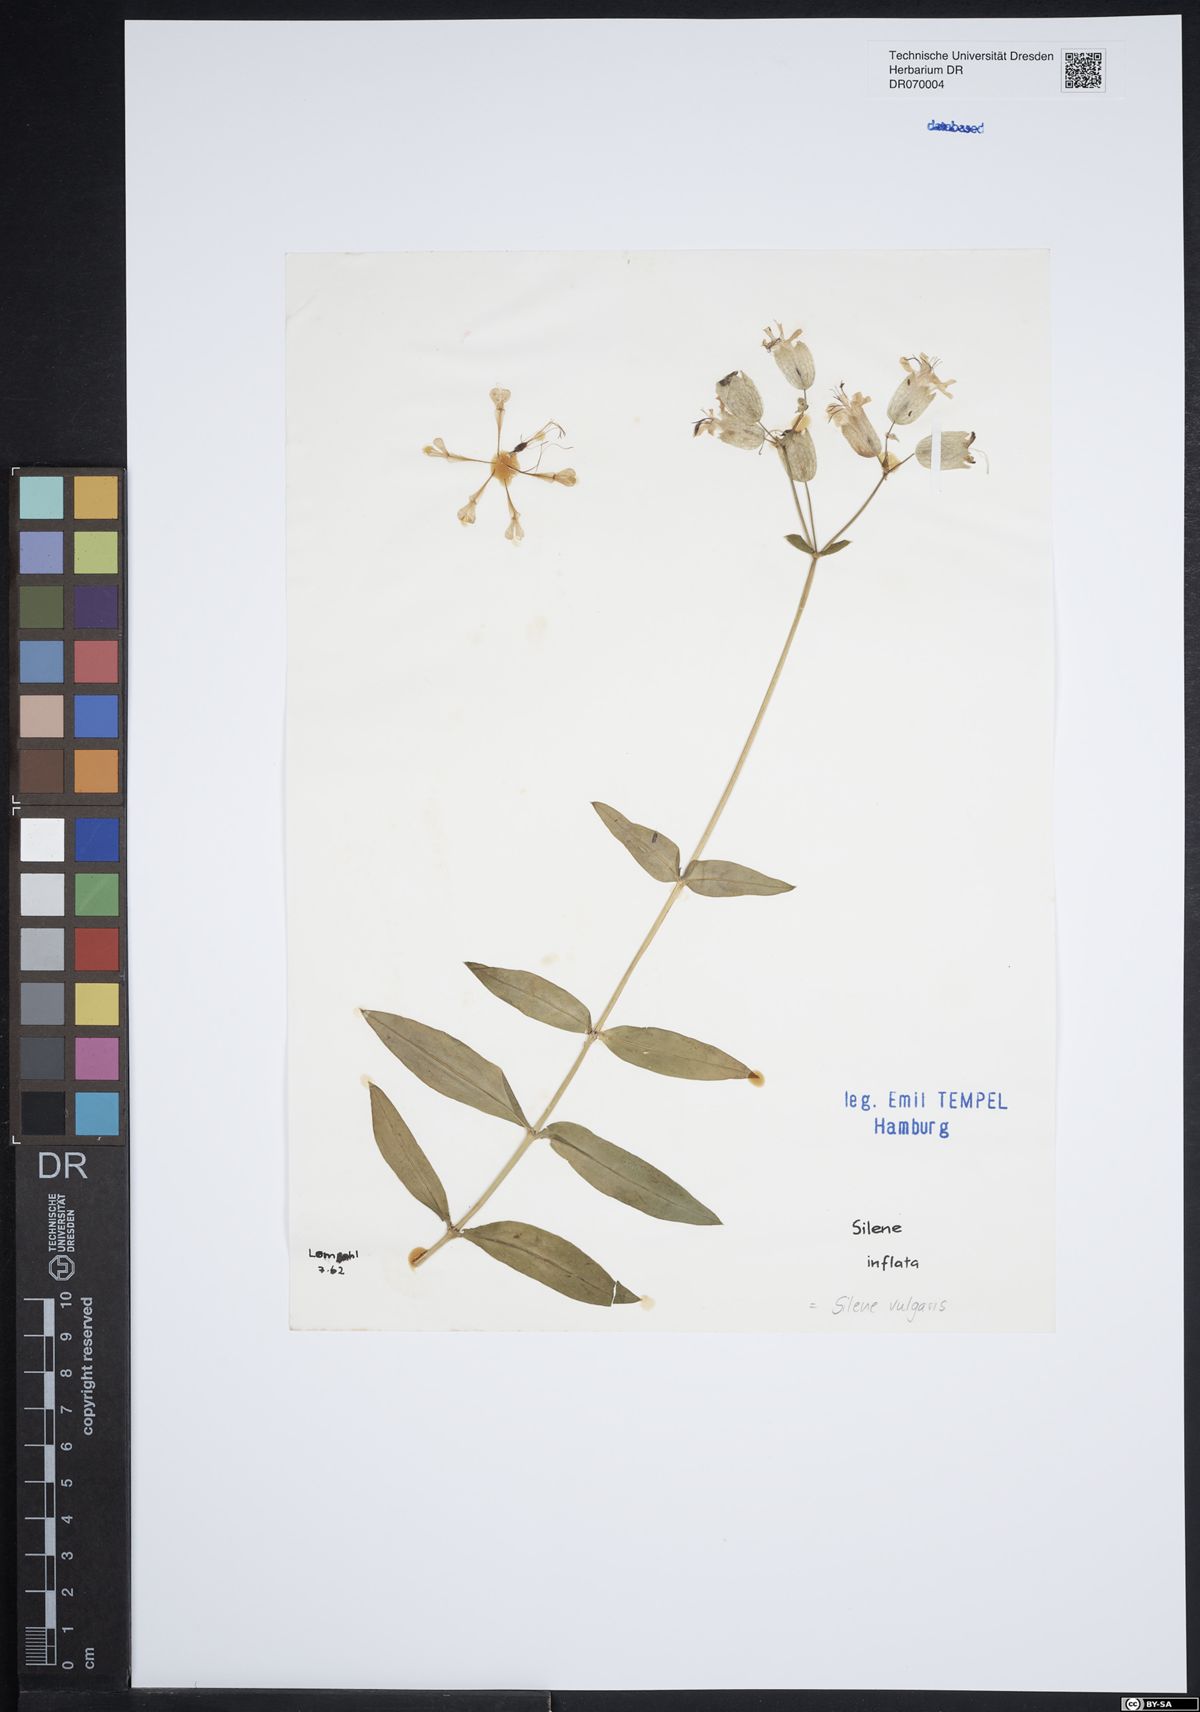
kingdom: Plantae
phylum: Tracheophyta
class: Magnoliopsida
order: Caryophyllales
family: Caryophyllaceae
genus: Silene
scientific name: Silene vulgaris
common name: Bladder campion
